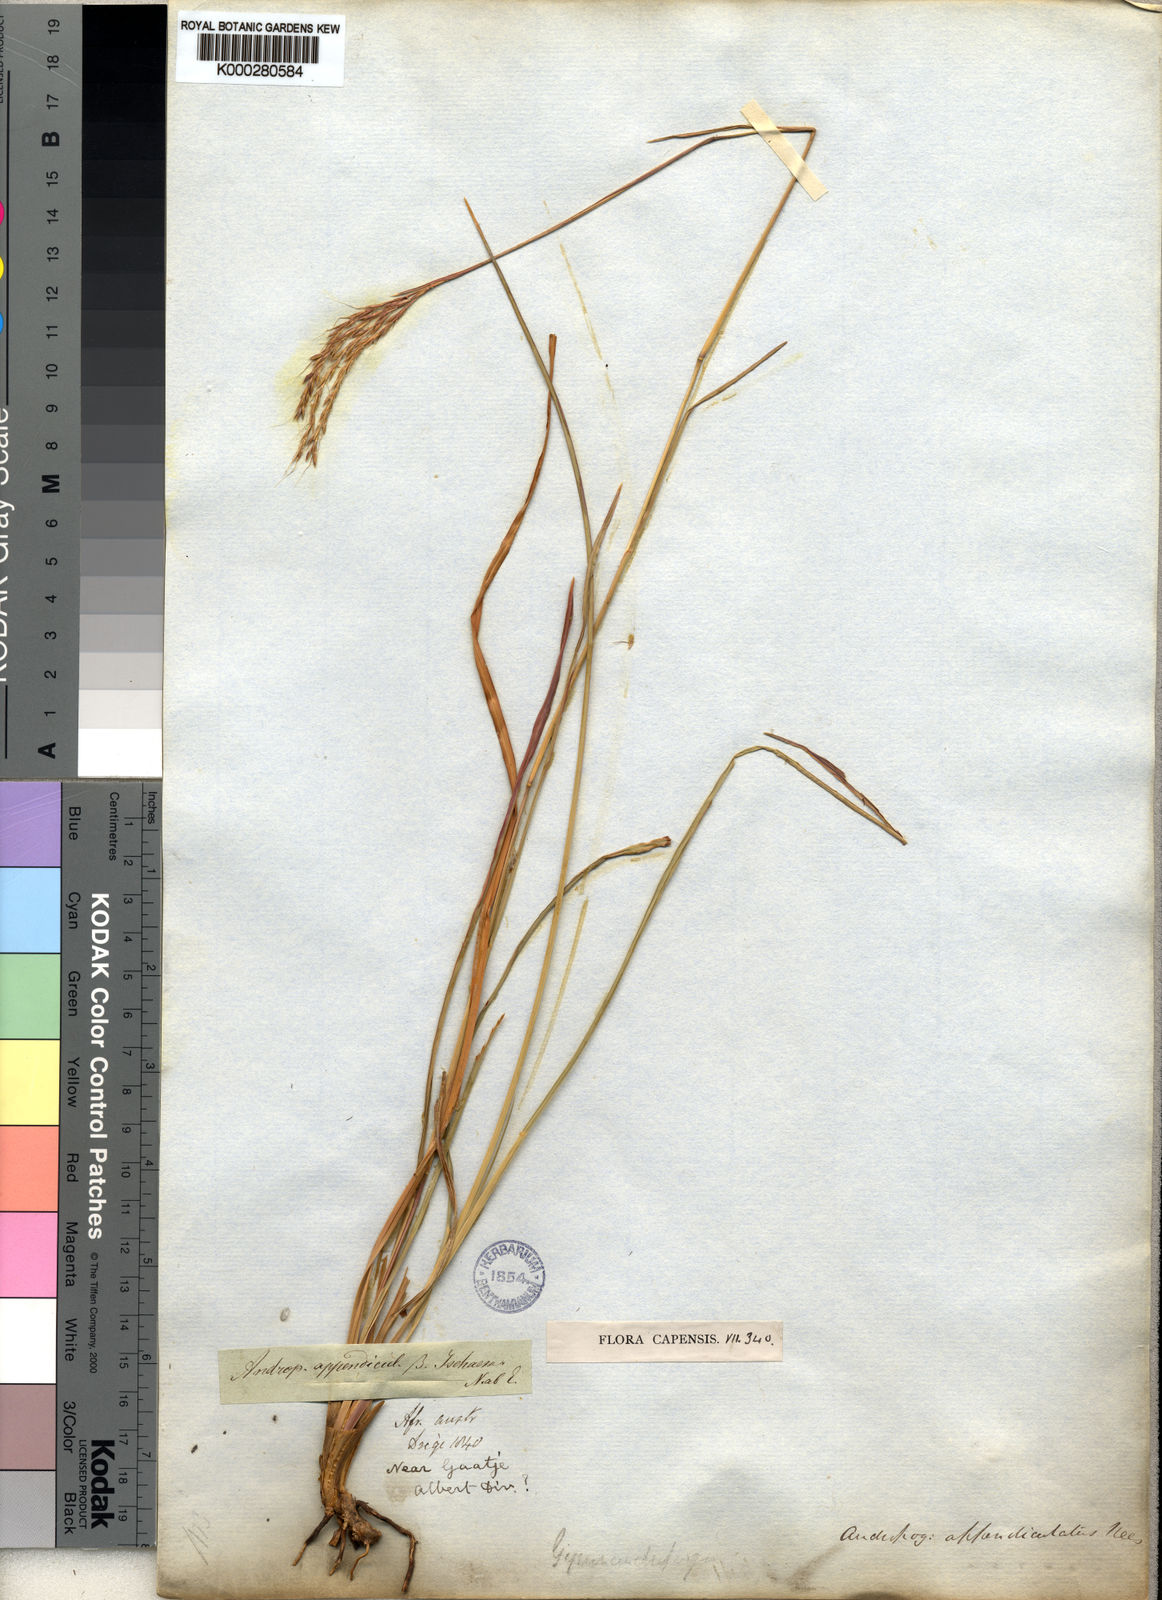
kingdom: Plantae
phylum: Tracheophyta
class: Liliopsida
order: Poales
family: Poaceae
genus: Andropogon
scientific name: Andropogon appendiculatus
